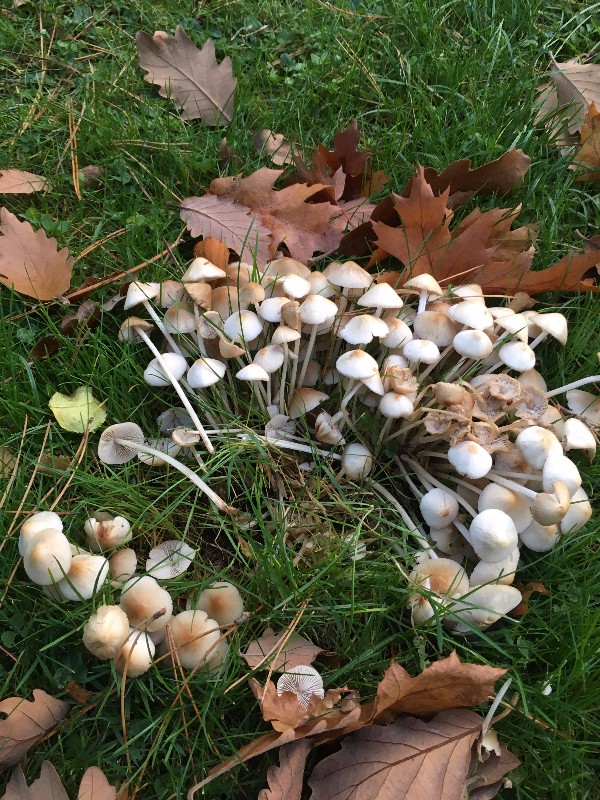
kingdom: Fungi
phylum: Basidiomycota
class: Agaricomycetes
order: Agaricales
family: Psathyrellaceae
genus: Britzelmayria
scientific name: Britzelmayria multipedata
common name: knippe-mørkhat
